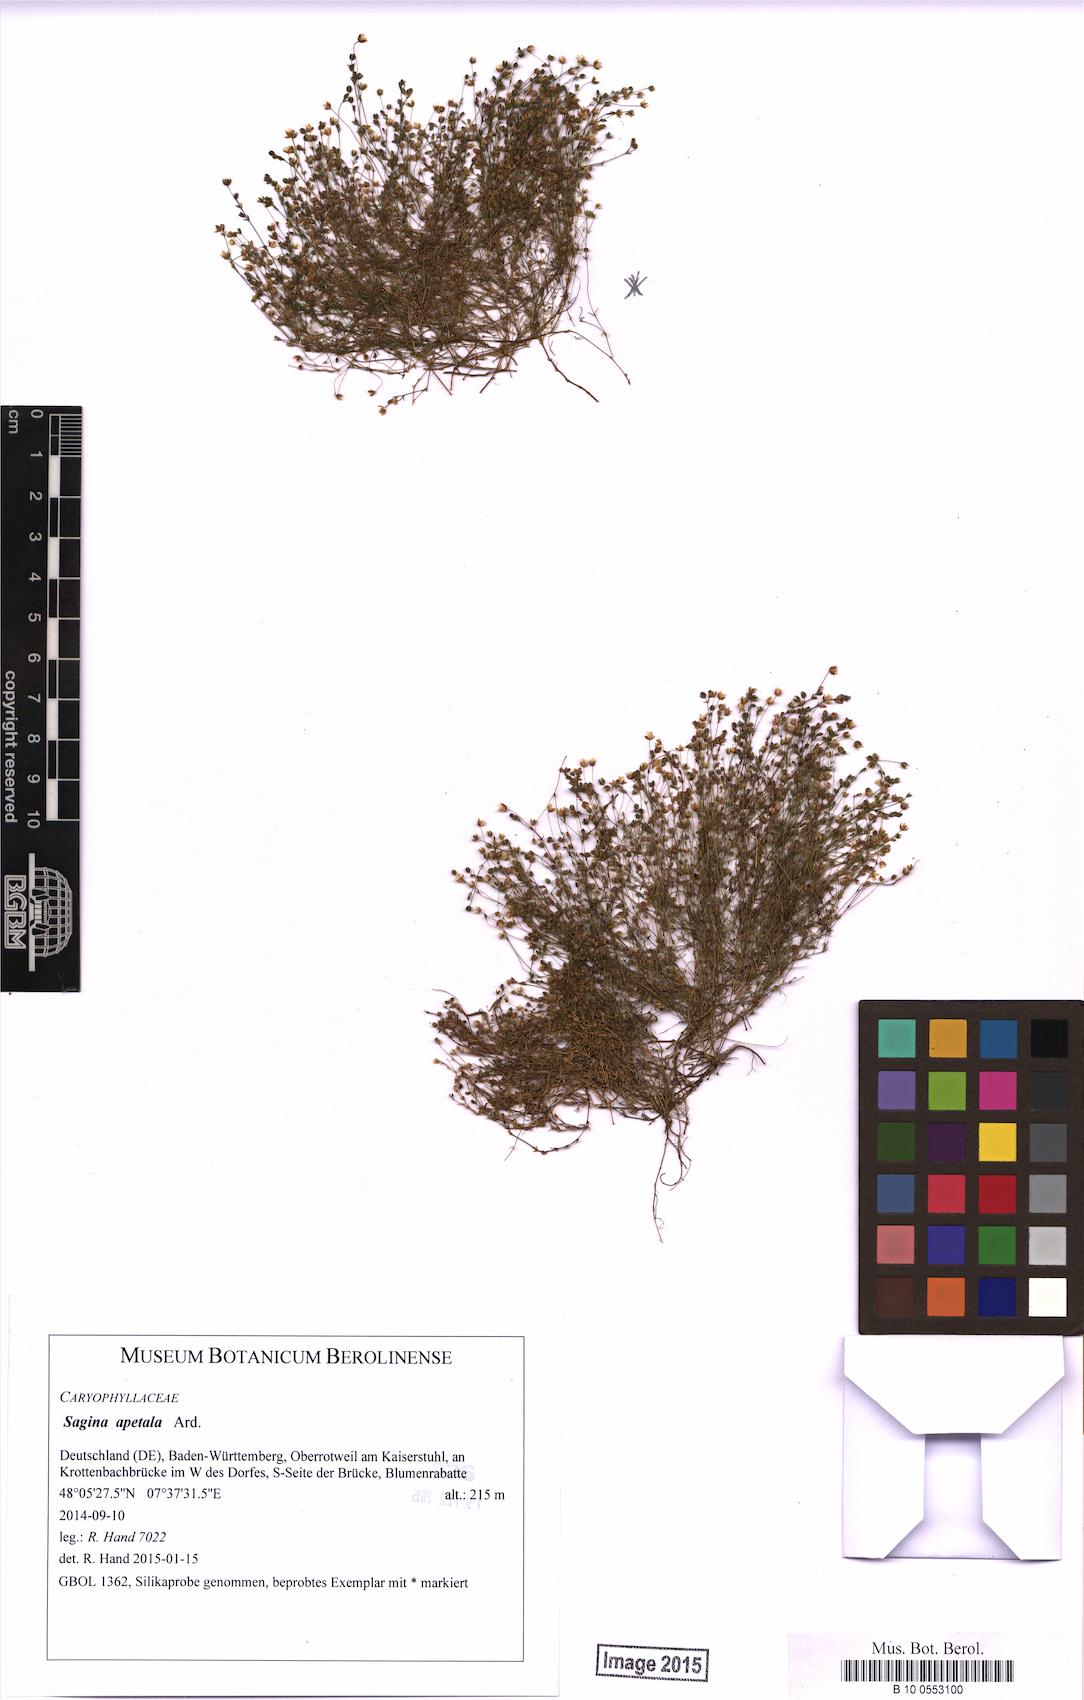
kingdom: Plantae
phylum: Tracheophyta
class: Magnoliopsida
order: Caryophyllales
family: Caryophyllaceae
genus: Sagina
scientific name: Sagina apetala
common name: Annual pearlwort
